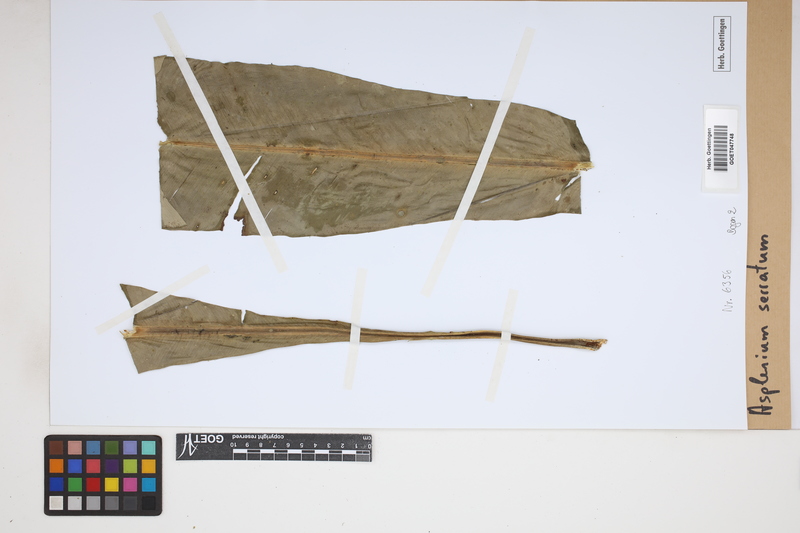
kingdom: Plantae
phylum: Tracheophyta
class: Polypodiopsida
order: Polypodiales
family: Aspleniaceae
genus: Asplenium
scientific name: Asplenium serratum
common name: Wild birdnest fern
